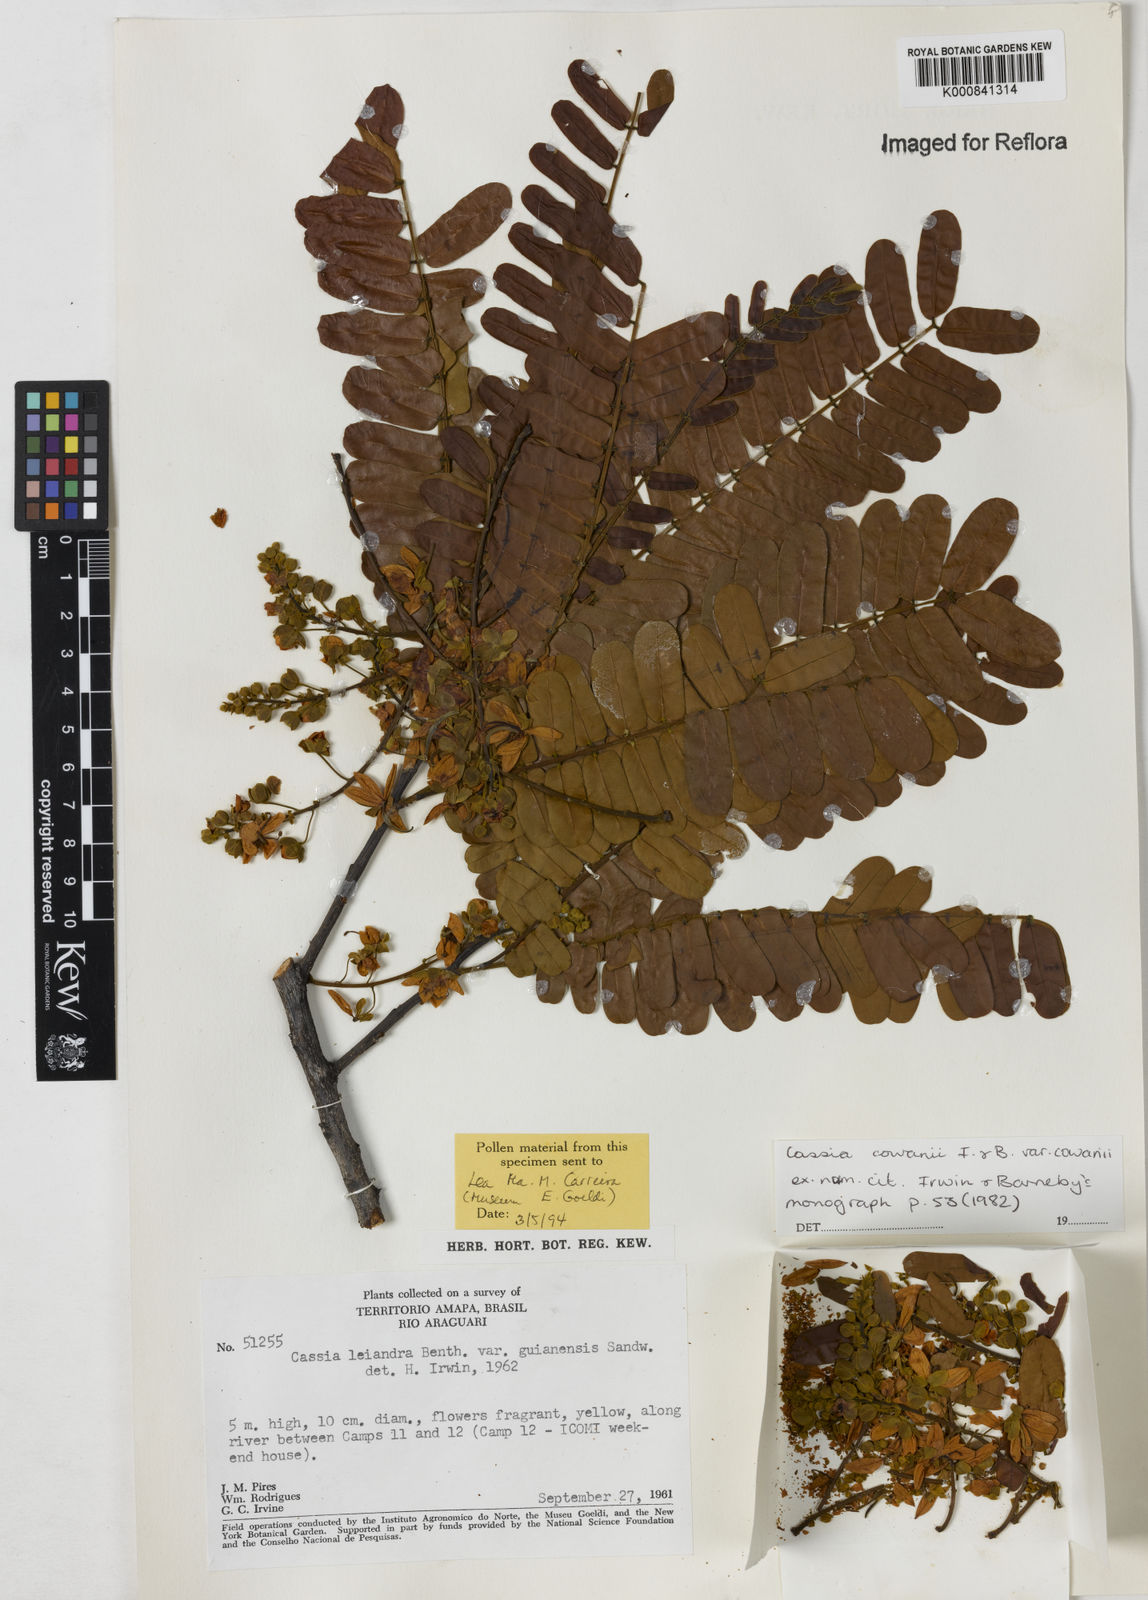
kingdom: Plantae
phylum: Tracheophyta
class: Magnoliopsida
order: Fabales
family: Fabaceae
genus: Cassia
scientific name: Cassia cowanii
